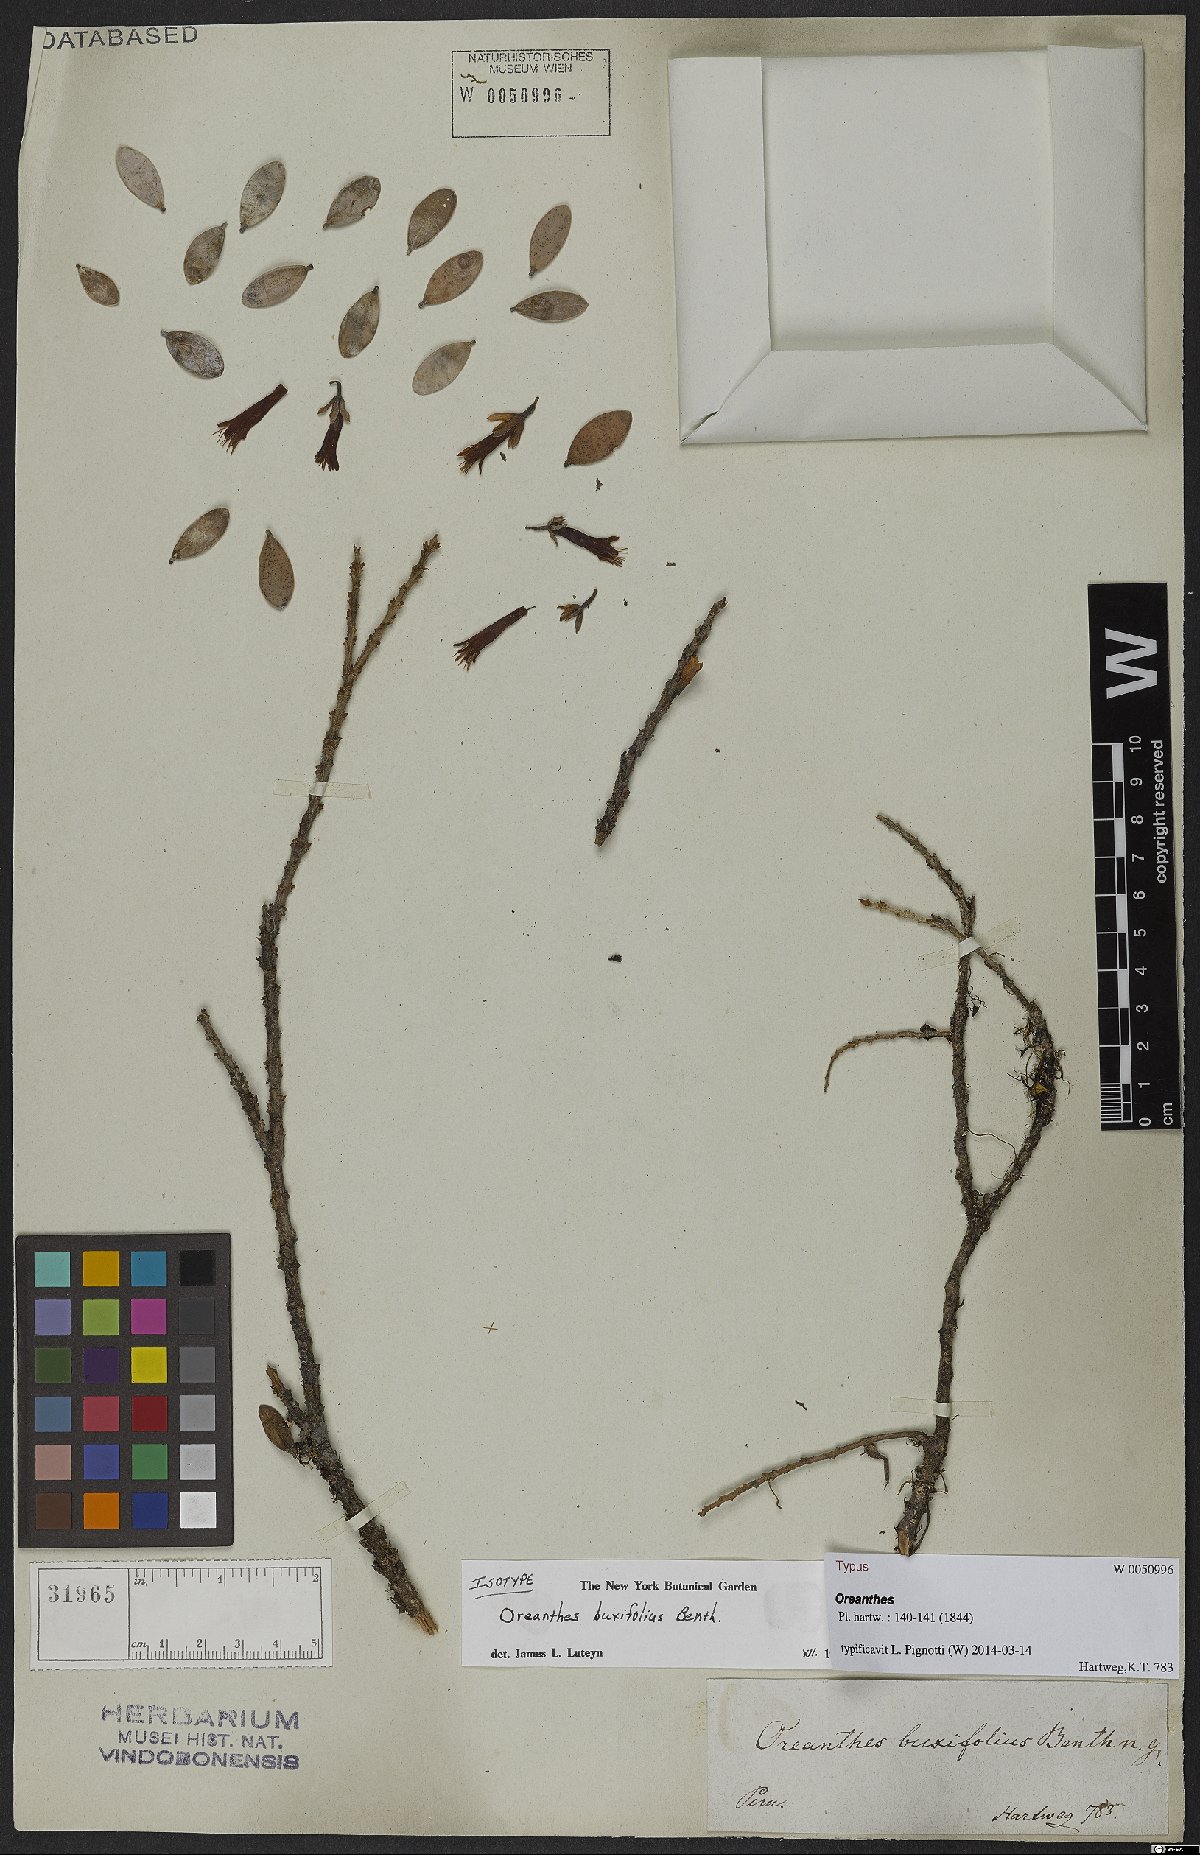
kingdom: Plantae
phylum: Tracheophyta
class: Magnoliopsida
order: Ericales
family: Ericaceae
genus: Oreanthes
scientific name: Oreanthes buxifolius
